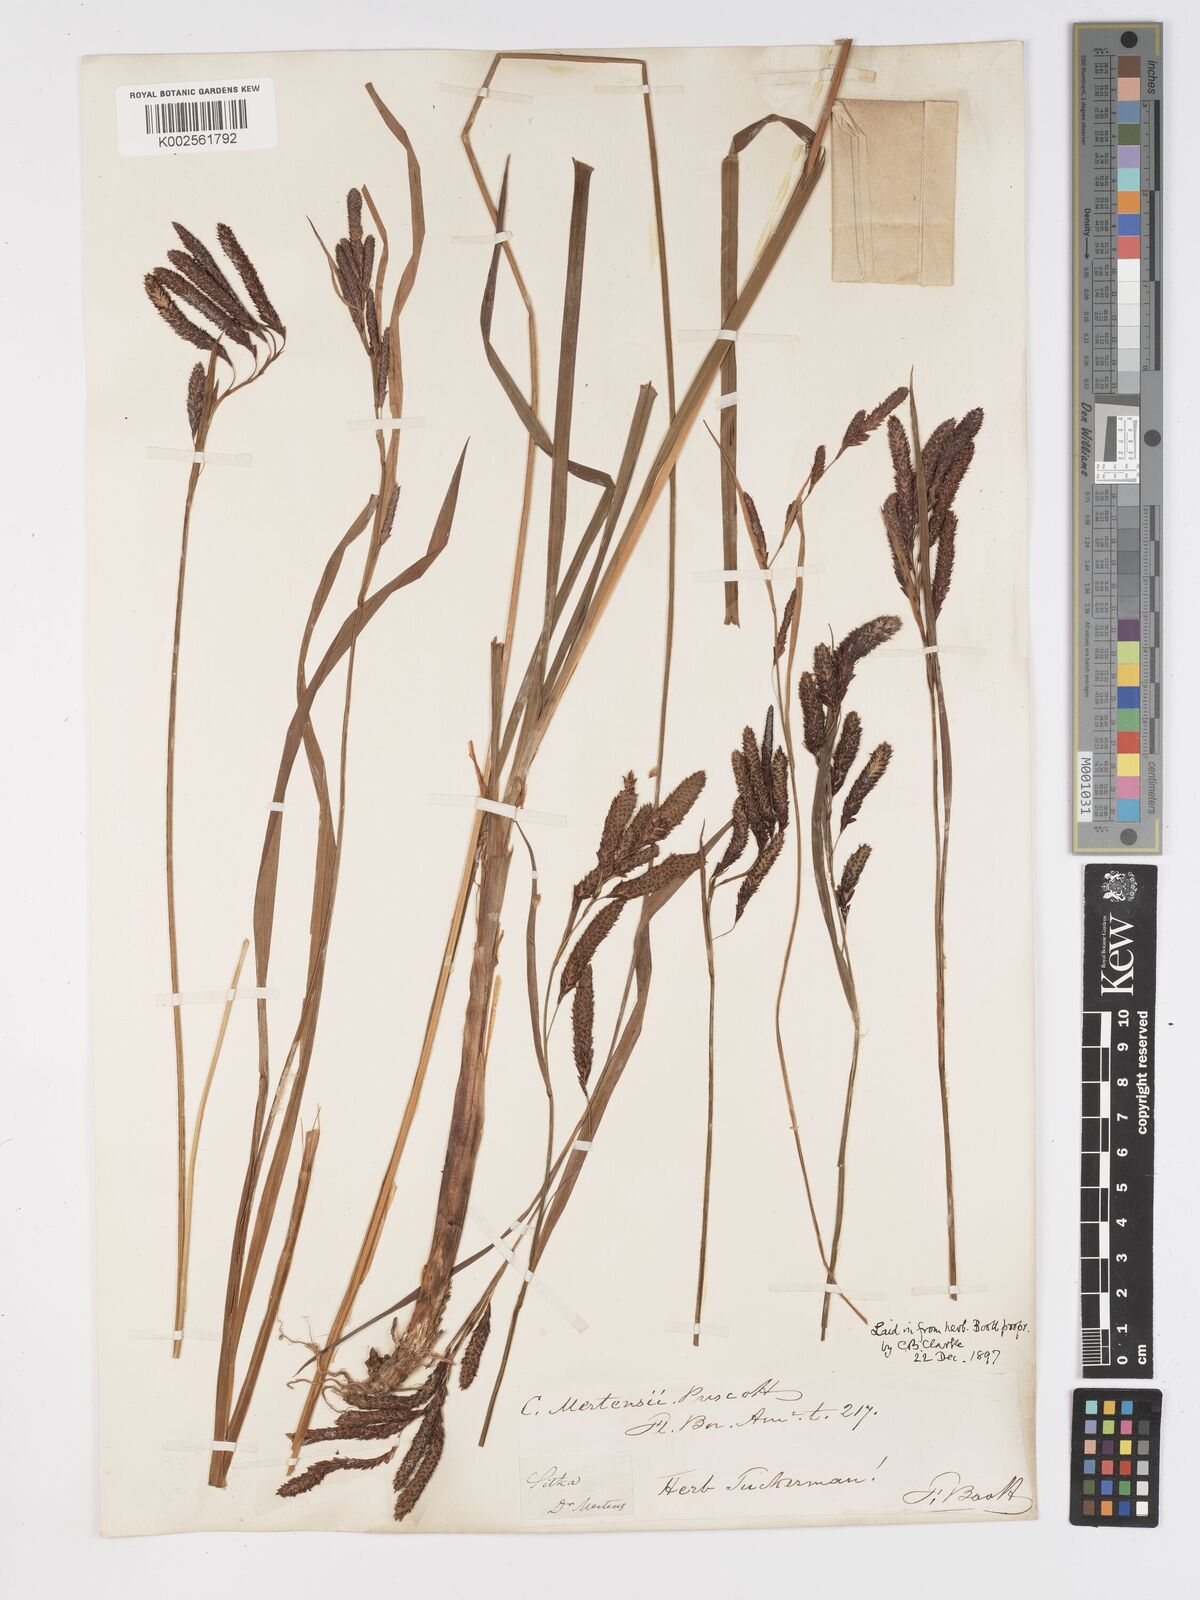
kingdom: Plantae
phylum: Tracheophyta
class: Liliopsida
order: Poales
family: Cyperaceae
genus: Carex
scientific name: Carex mertensii
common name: Mertens' sedge
